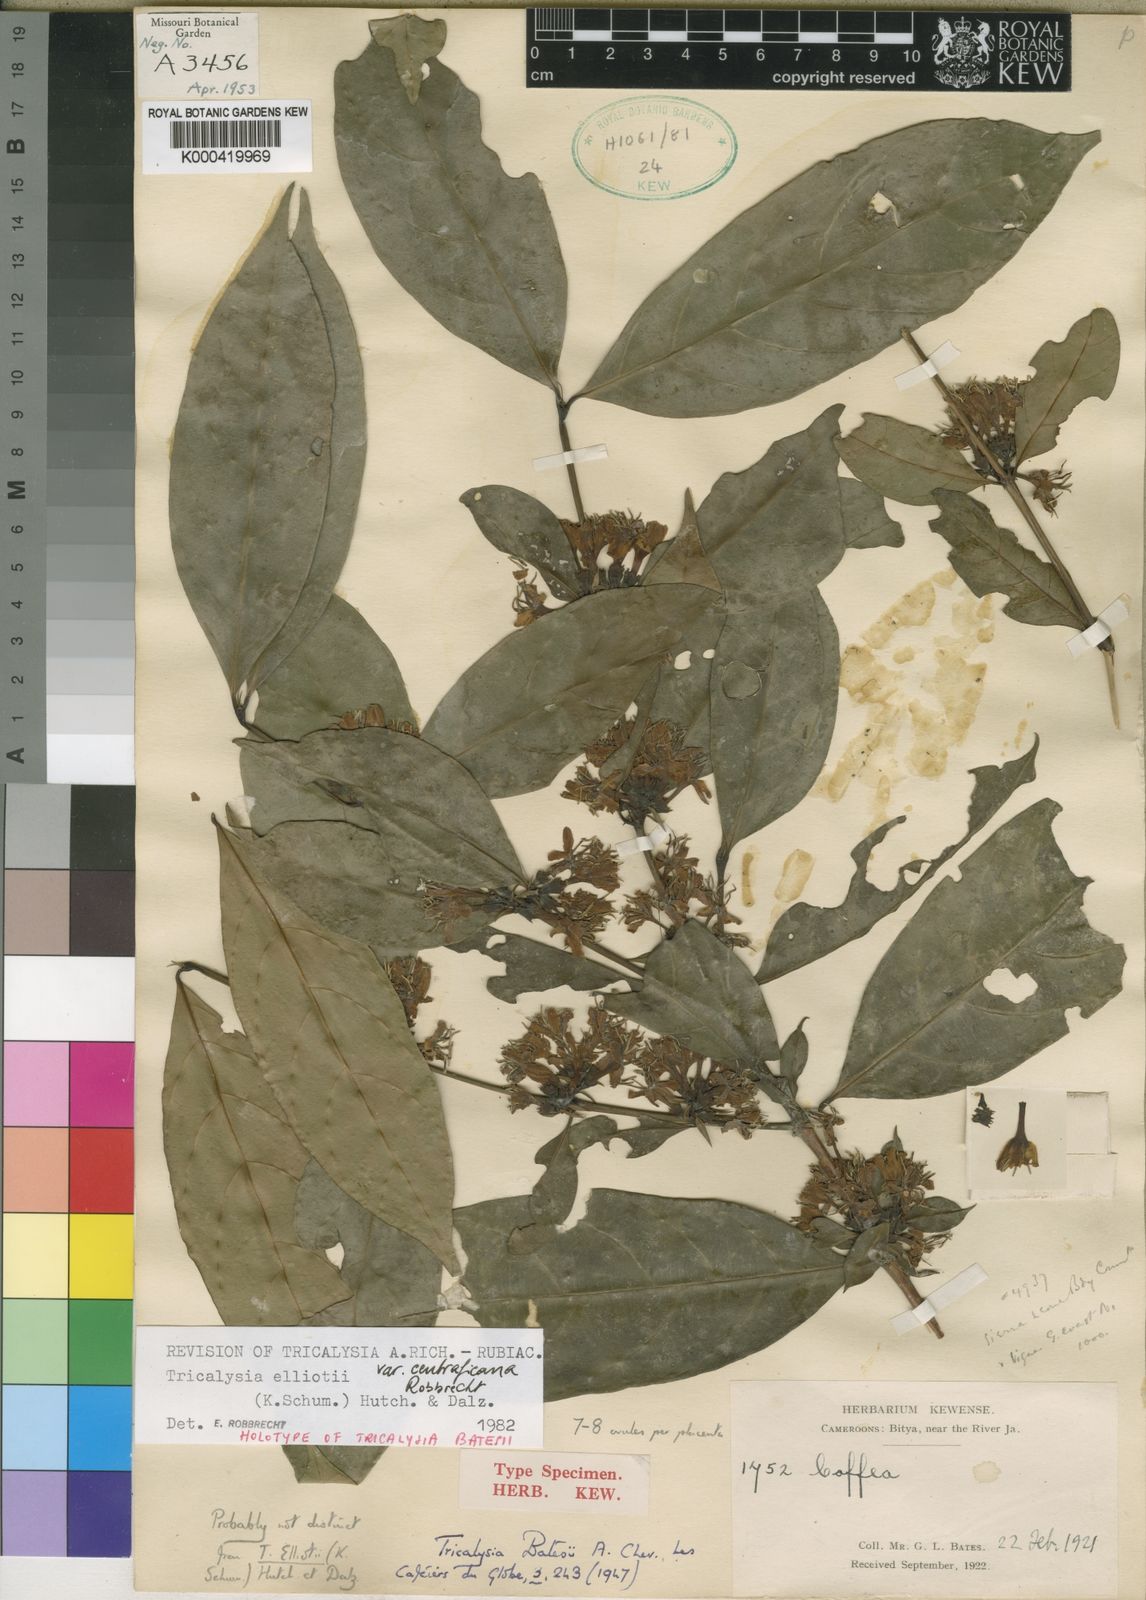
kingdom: Plantae
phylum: Tracheophyta
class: Magnoliopsida
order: Gentianales
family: Rubiaceae
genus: Tricalysia
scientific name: Tricalysia elliottii
